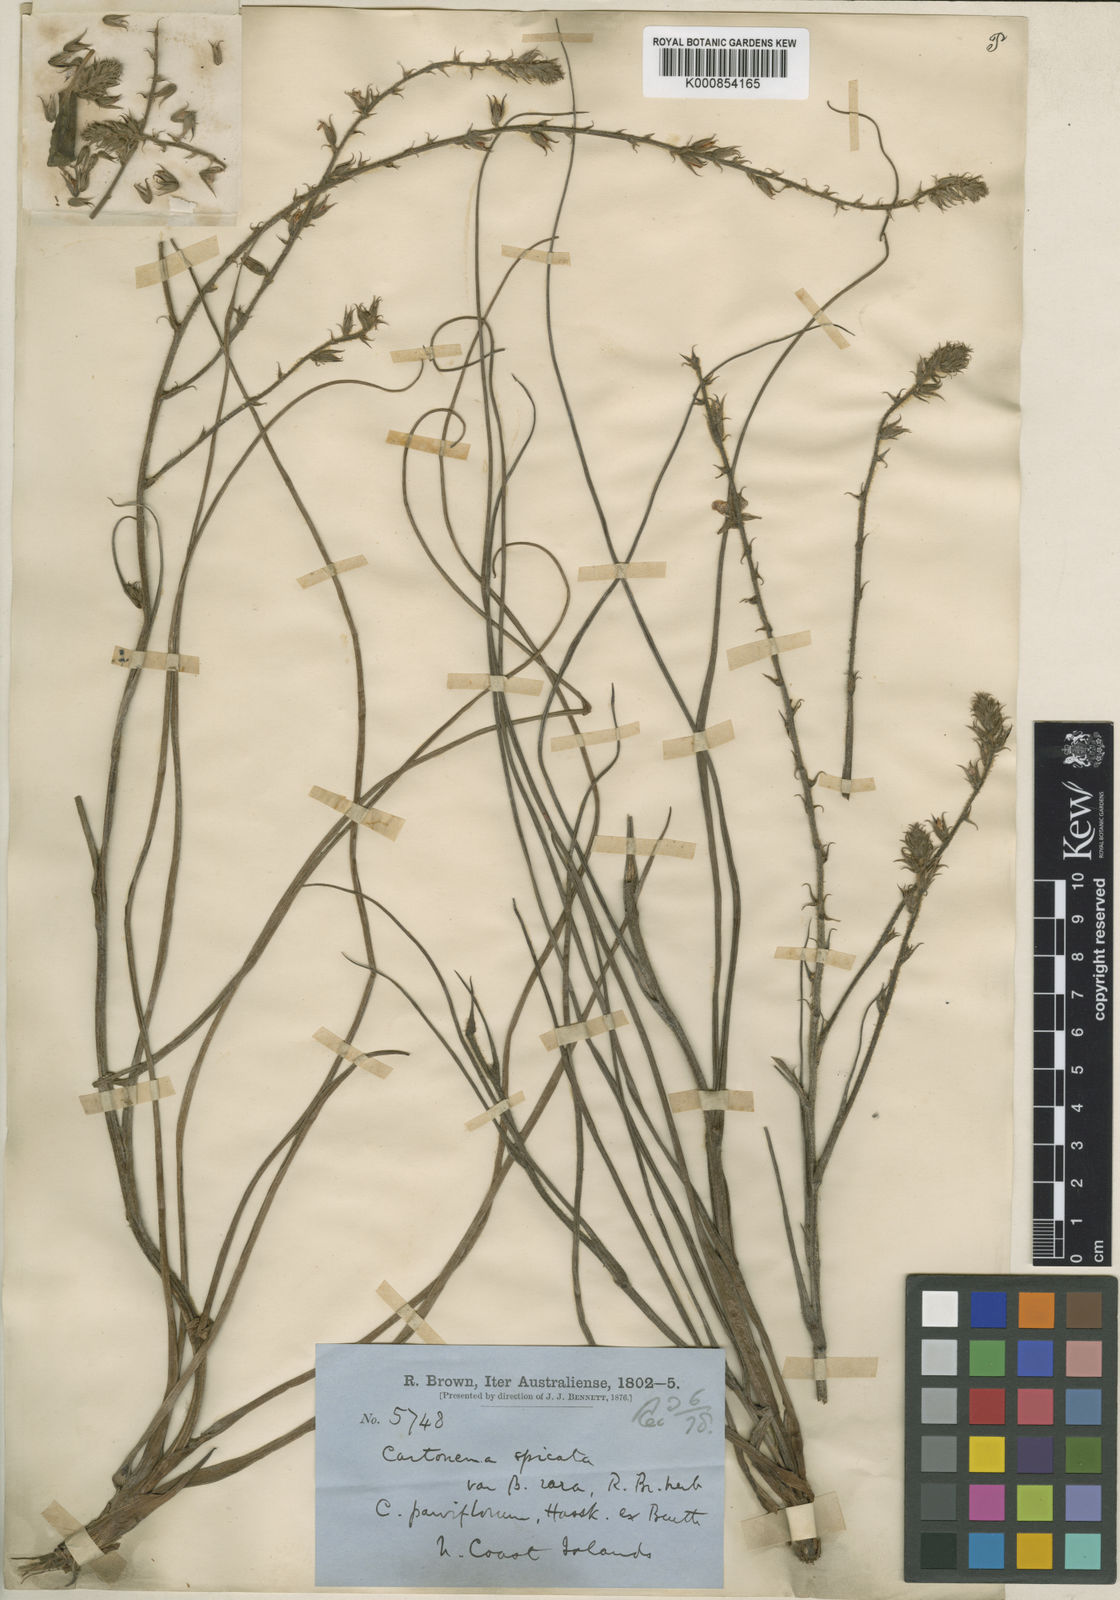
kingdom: Plantae
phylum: Tracheophyta
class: Liliopsida
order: Commelinales
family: Commelinaceae
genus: Cartonema
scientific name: Cartonema spicatum
